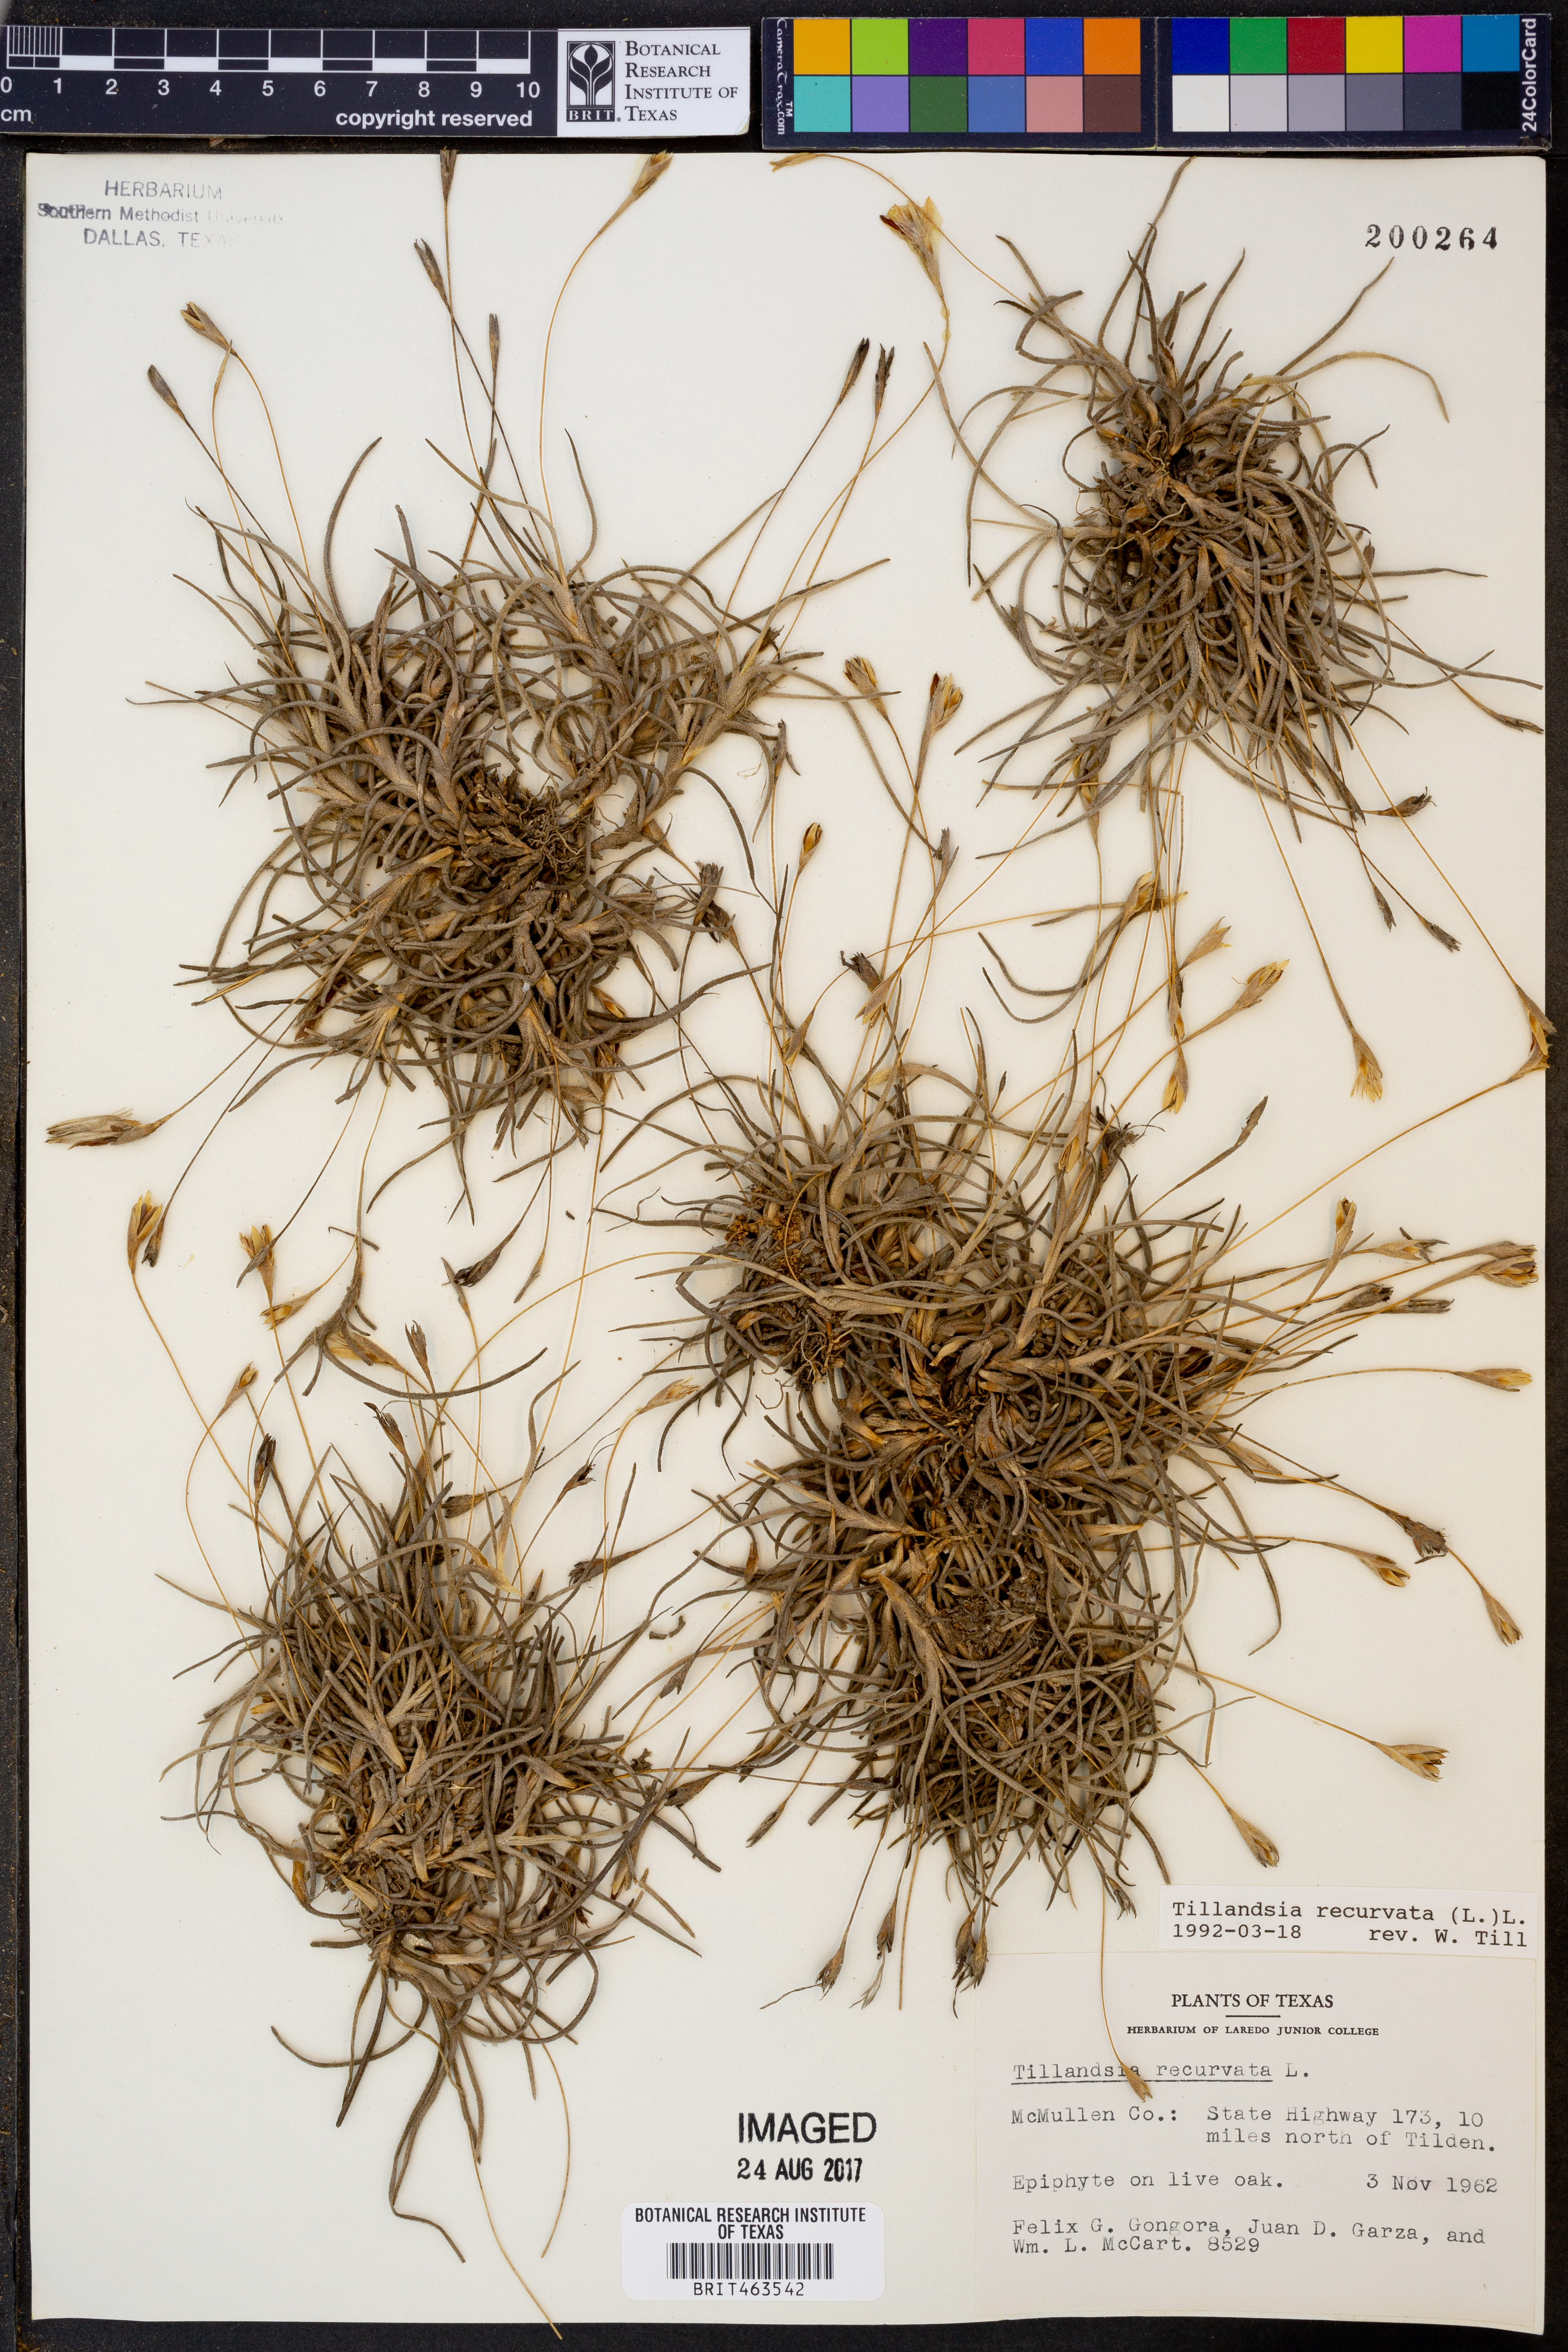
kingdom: Plantae
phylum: Tracheophyta
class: Liliopsida
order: Poales
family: Bromeliaceae
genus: Tillandsia
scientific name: Tillandsia recurvata
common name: Small ballmoss
